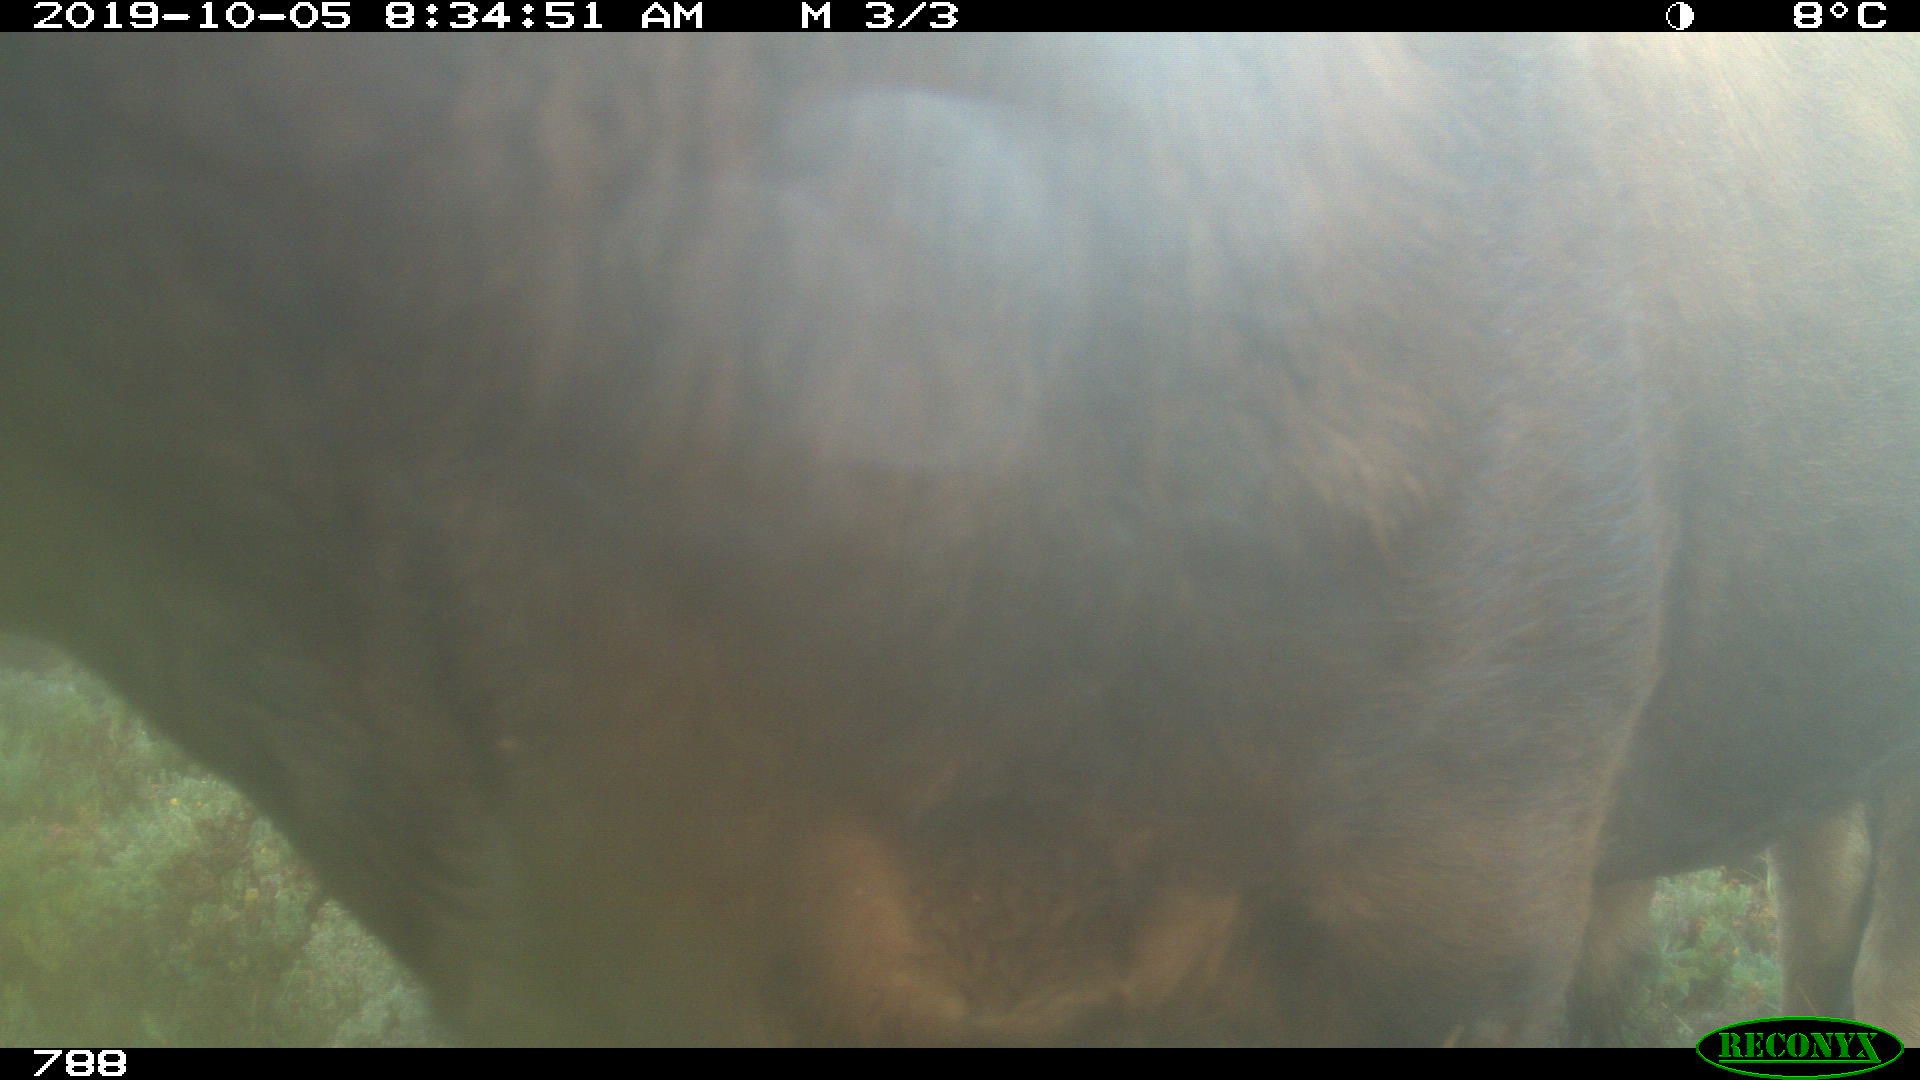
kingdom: Animalia
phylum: Chordata
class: Mammalia
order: Artiodactyla
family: Bovidae
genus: Bos
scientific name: Bos taurus
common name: Domesticated cattle
